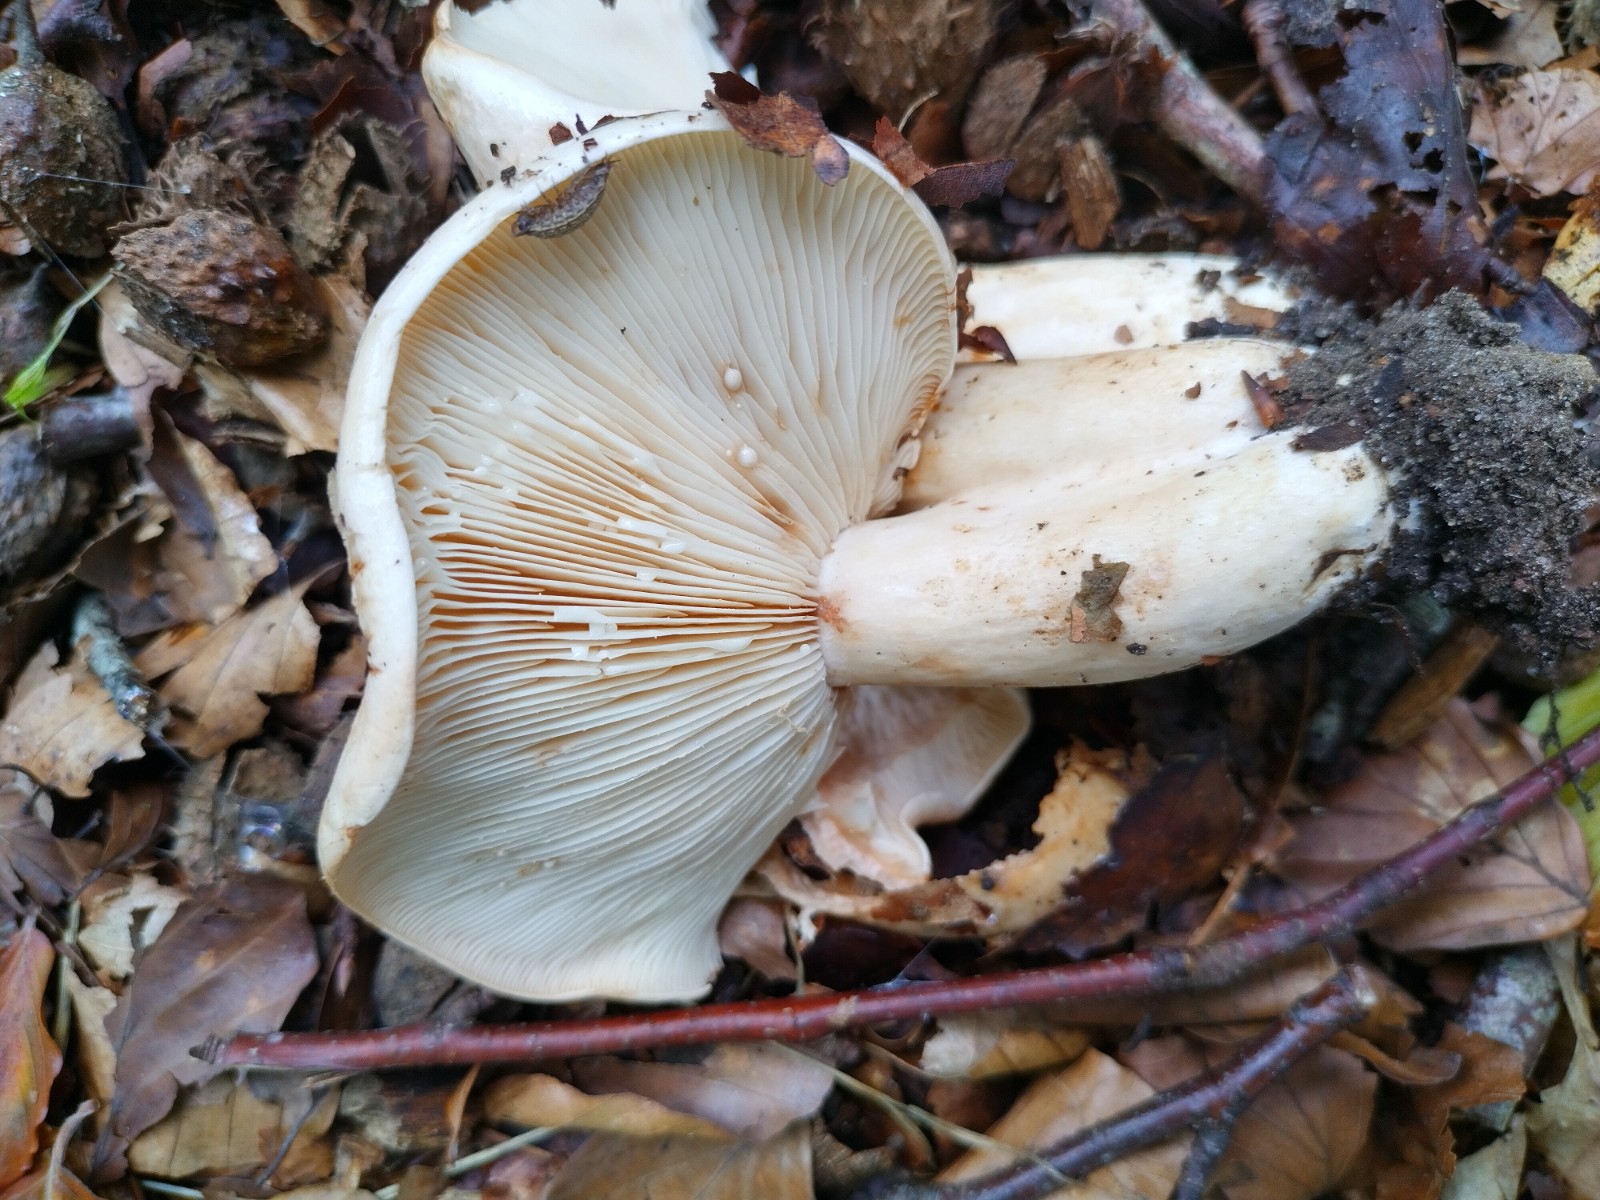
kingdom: Fungi
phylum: Basidiomycota
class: Agaricomycetes
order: Russulales
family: Russulaceae
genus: Lactarius
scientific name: Lactarius pallidus
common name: bleg mælkehat
